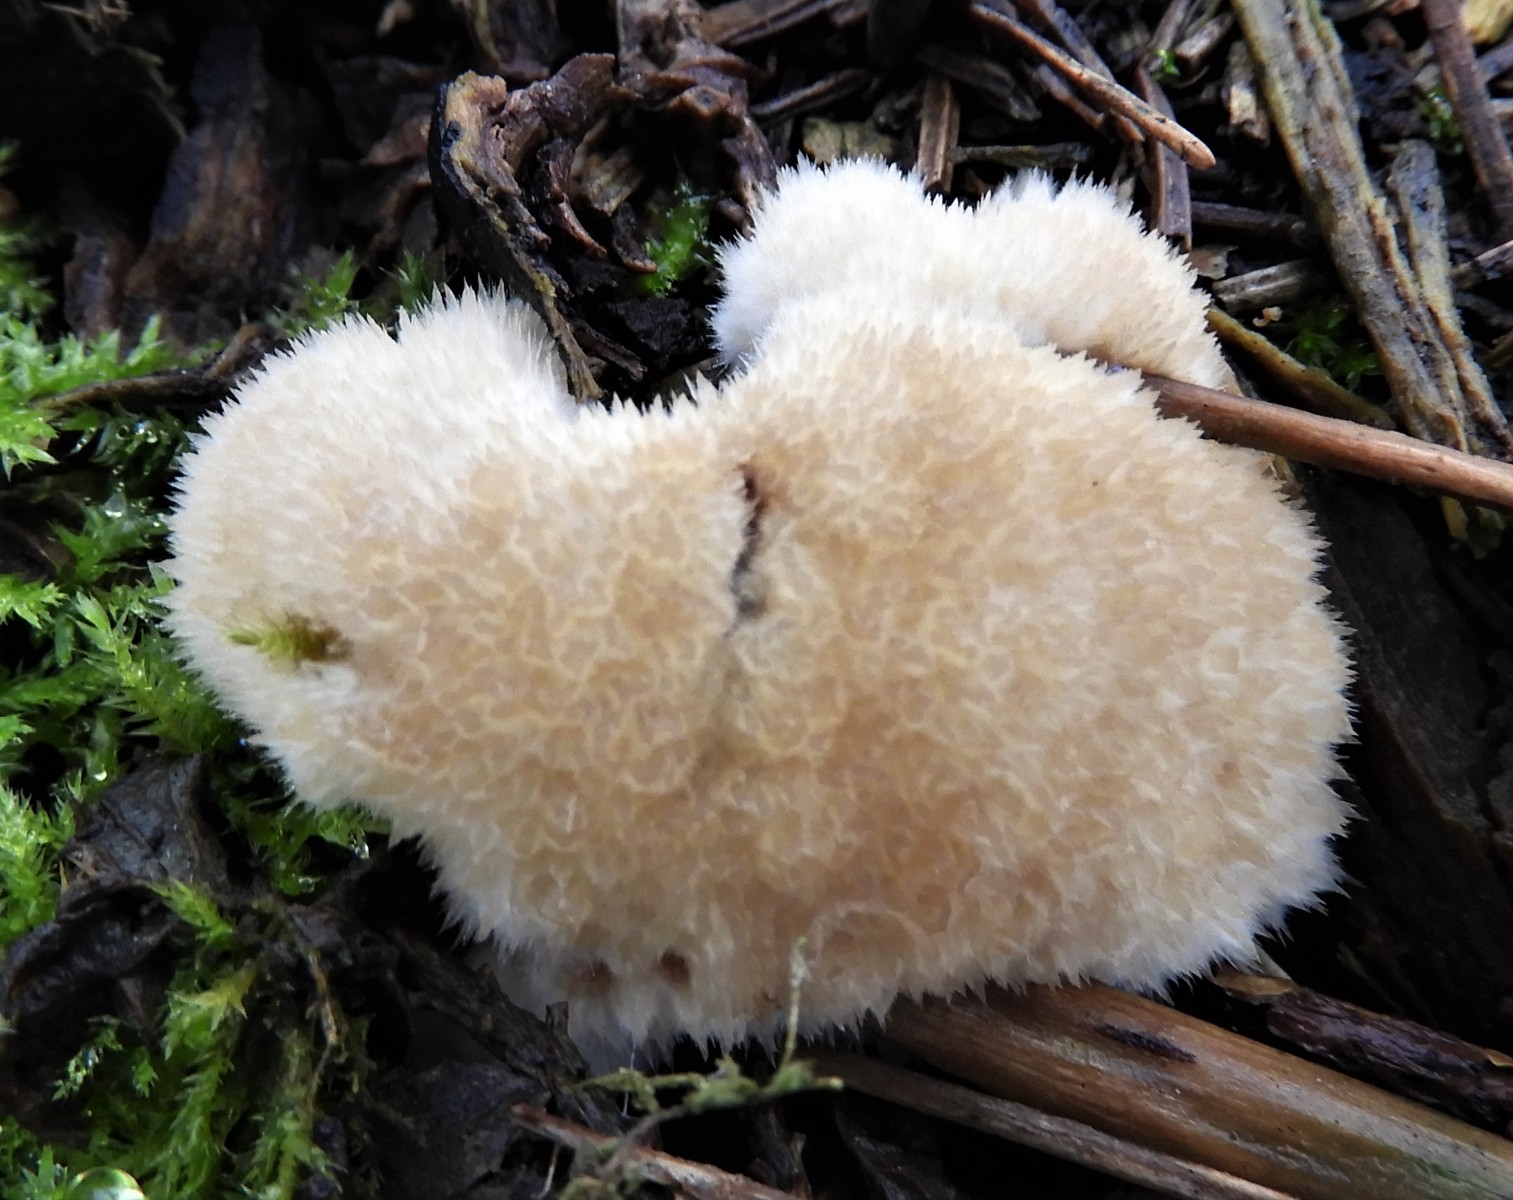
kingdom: Fungi
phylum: Basidiomycota
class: Agaricomycetes
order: Polyporales
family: Dacryobolaceae
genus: Postia
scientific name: Postia ptychogaster
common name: støvende kødporesvamp
